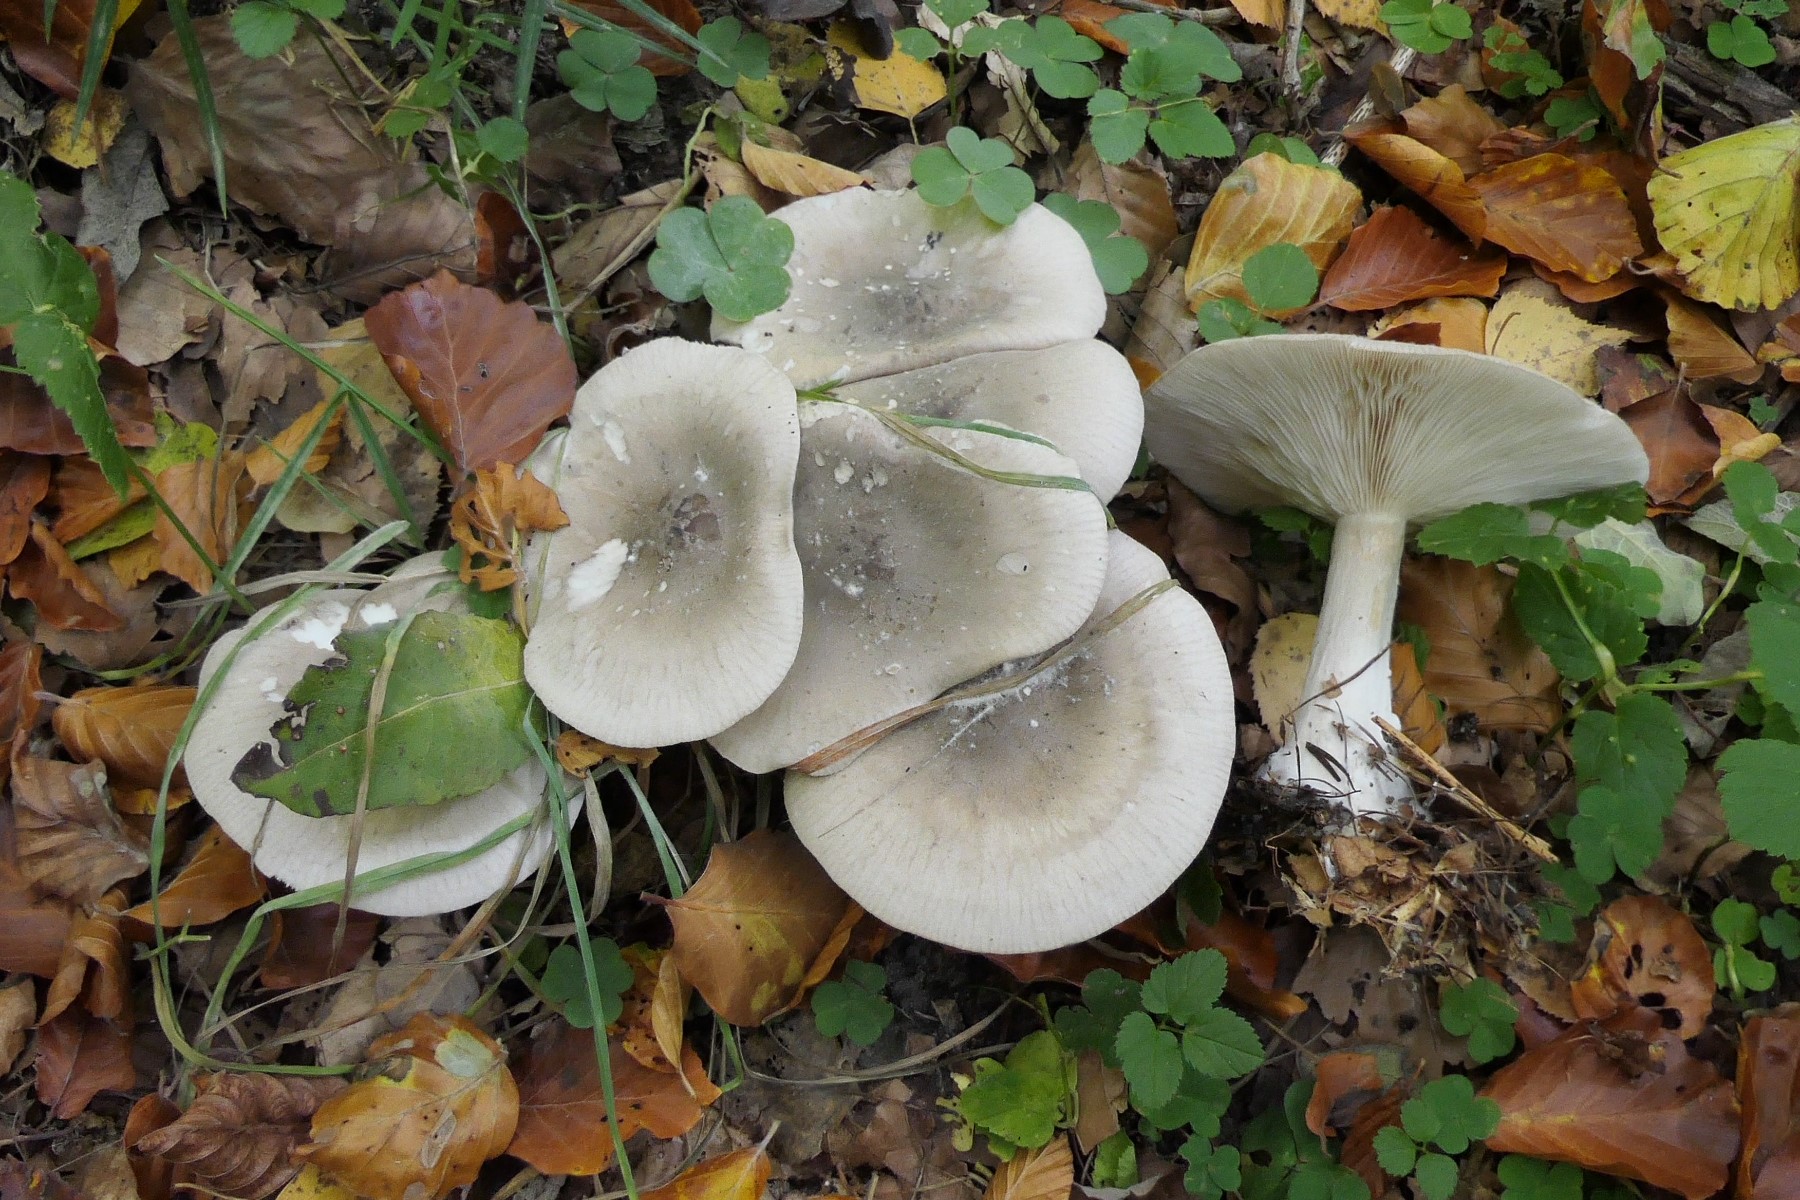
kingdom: Fungi
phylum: Basidiomycota
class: Agaricomycetes
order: Agaricales
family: Tricholomataceae
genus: Clitocybe
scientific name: Clitocybe nebularis
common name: tåge-tragthat
